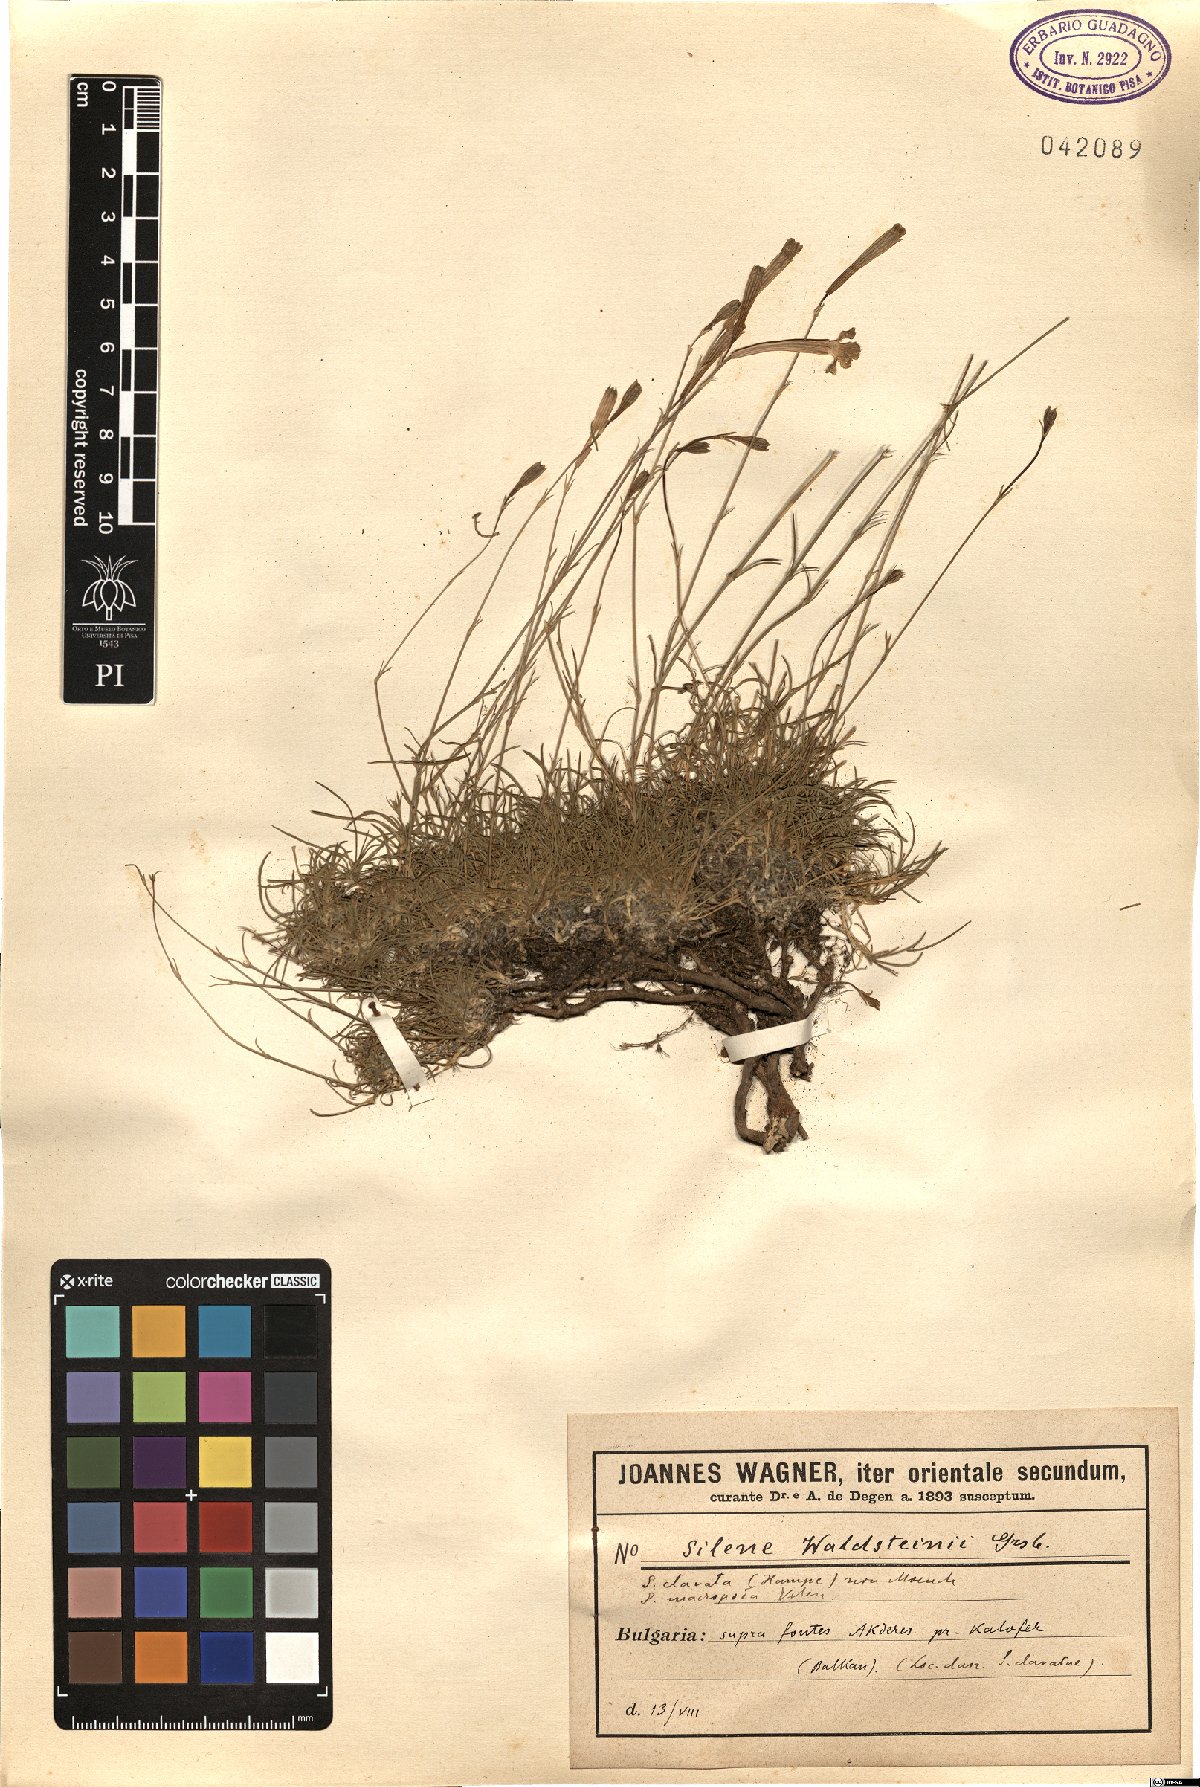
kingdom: Plantae
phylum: Tracheophyta
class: Magnoliopsida
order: Caryophyllales
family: Caryophyllaceae
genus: Silene
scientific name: Silene waldsteinii
